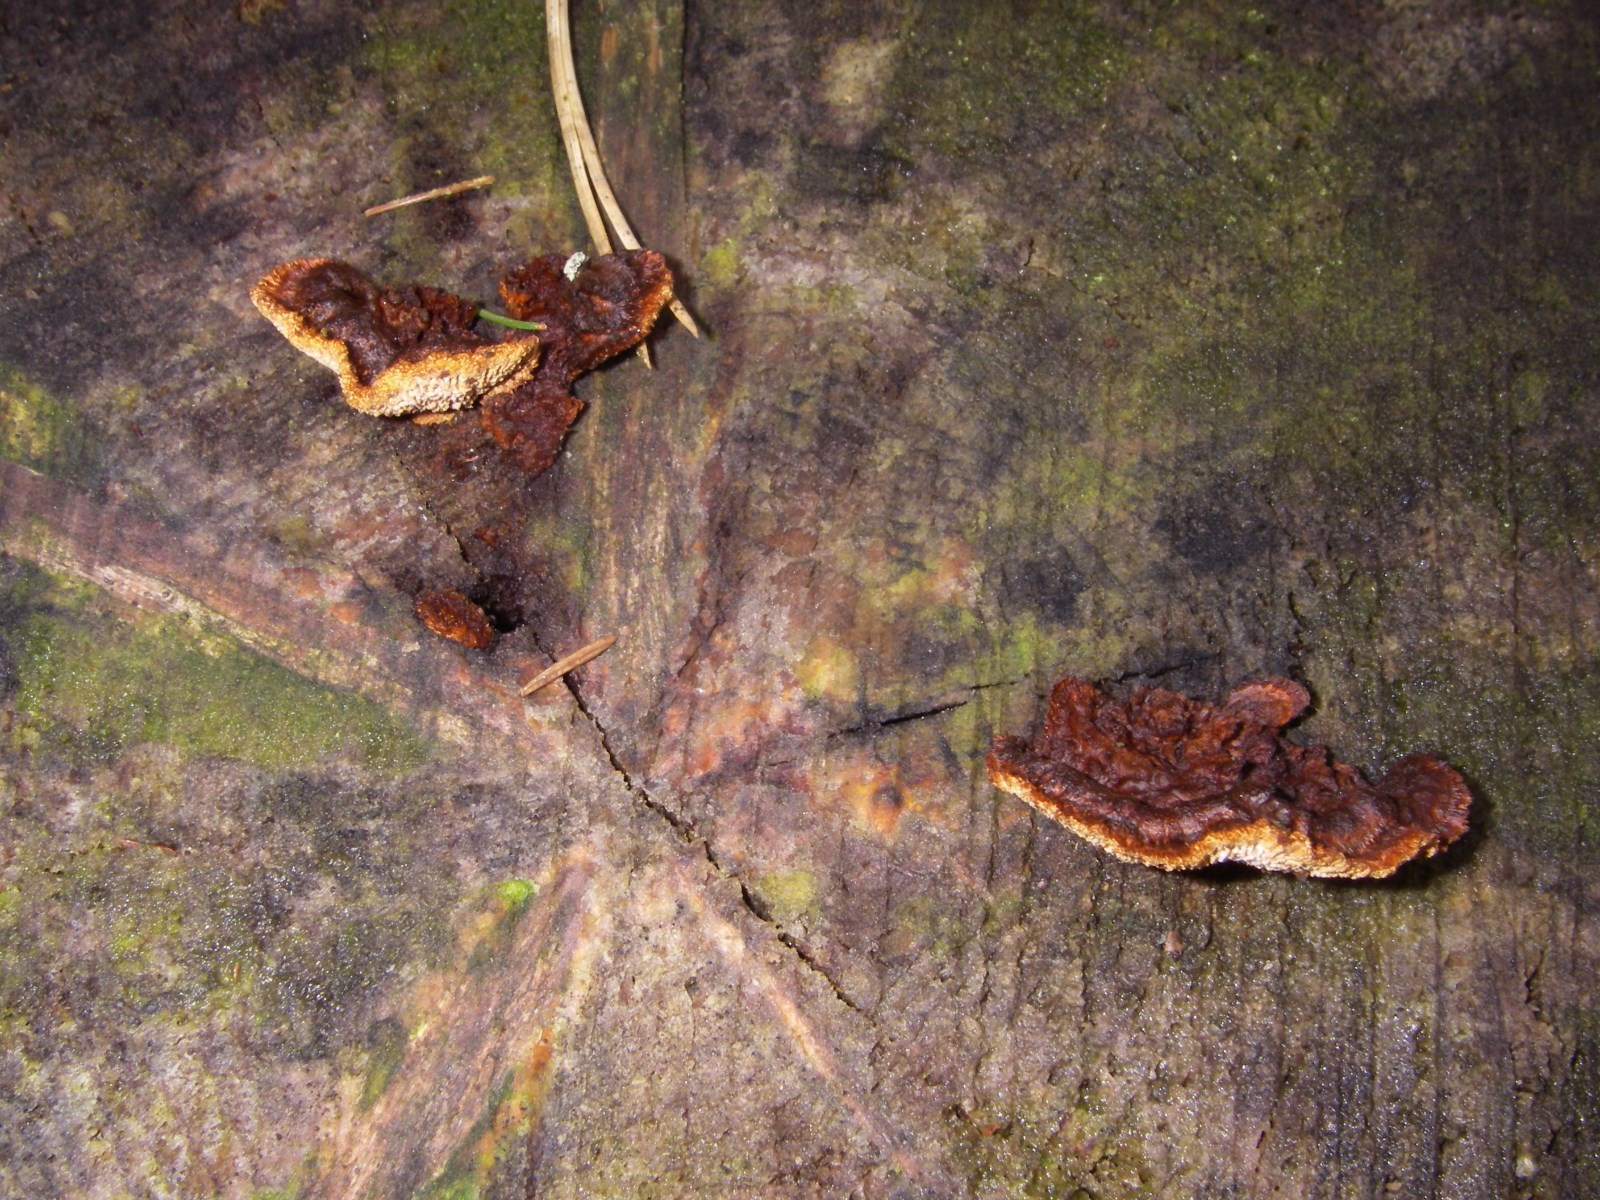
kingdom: Fungi
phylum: Basidiomycota
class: Agaricomycetes
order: Gloeophyllales
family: Gloeophyllaceae
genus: Gloeophyllum
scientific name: Gloeophyllum sepiarium
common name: fyrre-korkhat
